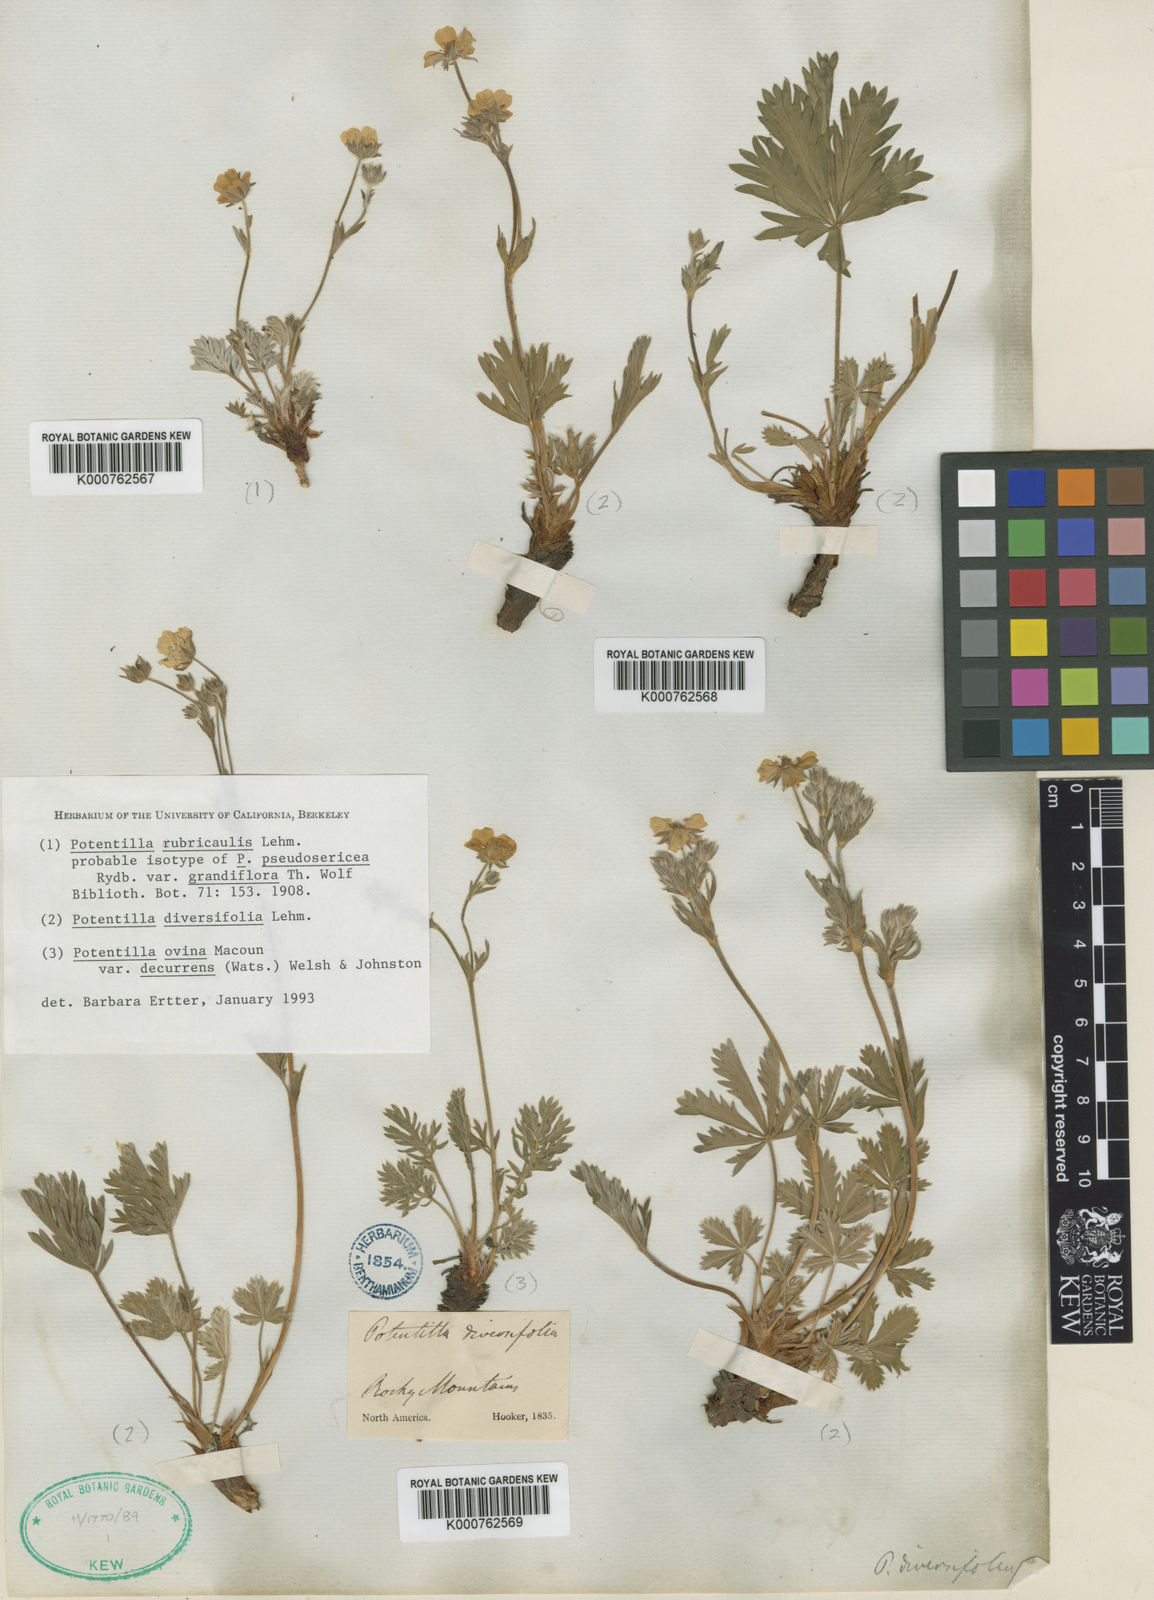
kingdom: Plantae
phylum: Tracheophyta
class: Magnoliopsida
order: Rosales
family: Rosaceae
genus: Potentilla
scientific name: Potentilla rubricaulis
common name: Red-stemmed cinquefoil
